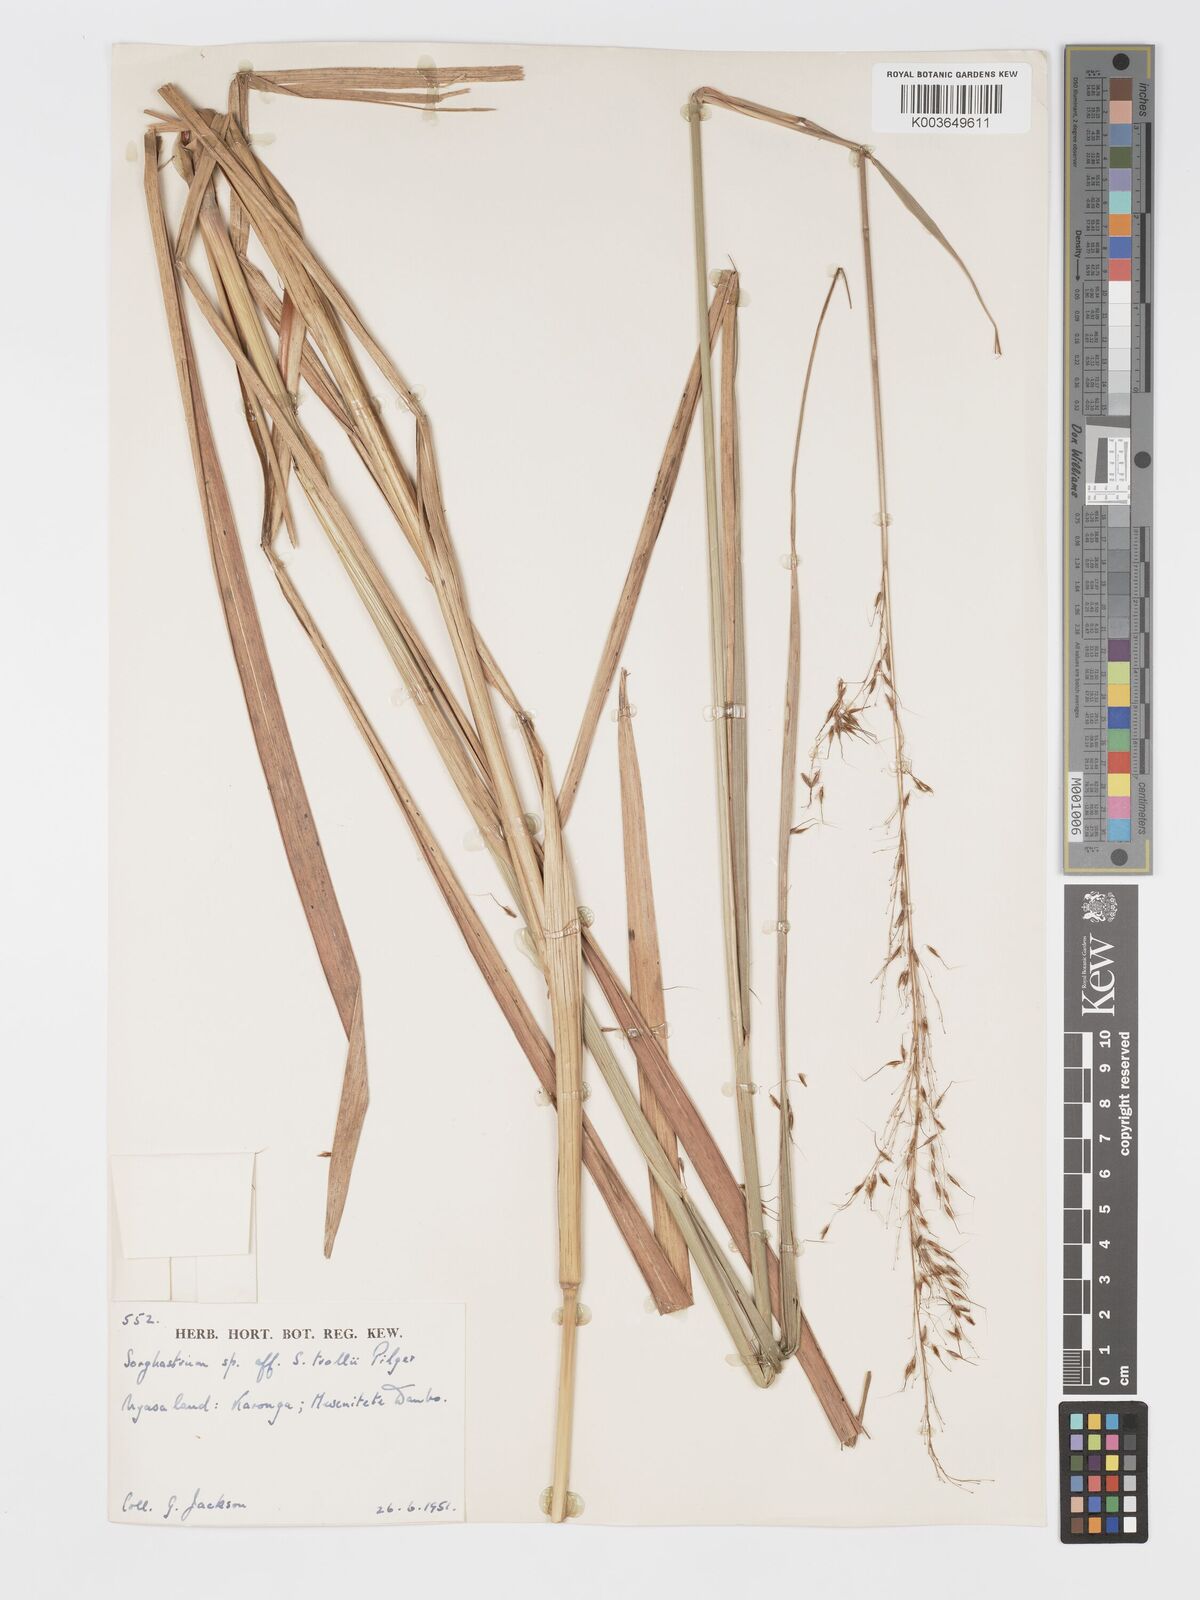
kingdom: Plantae
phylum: Tracheophyta
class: Liliopsida
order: Poales
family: Poaceae
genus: Sorghastrum
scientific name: Sorghastrum stipoides
